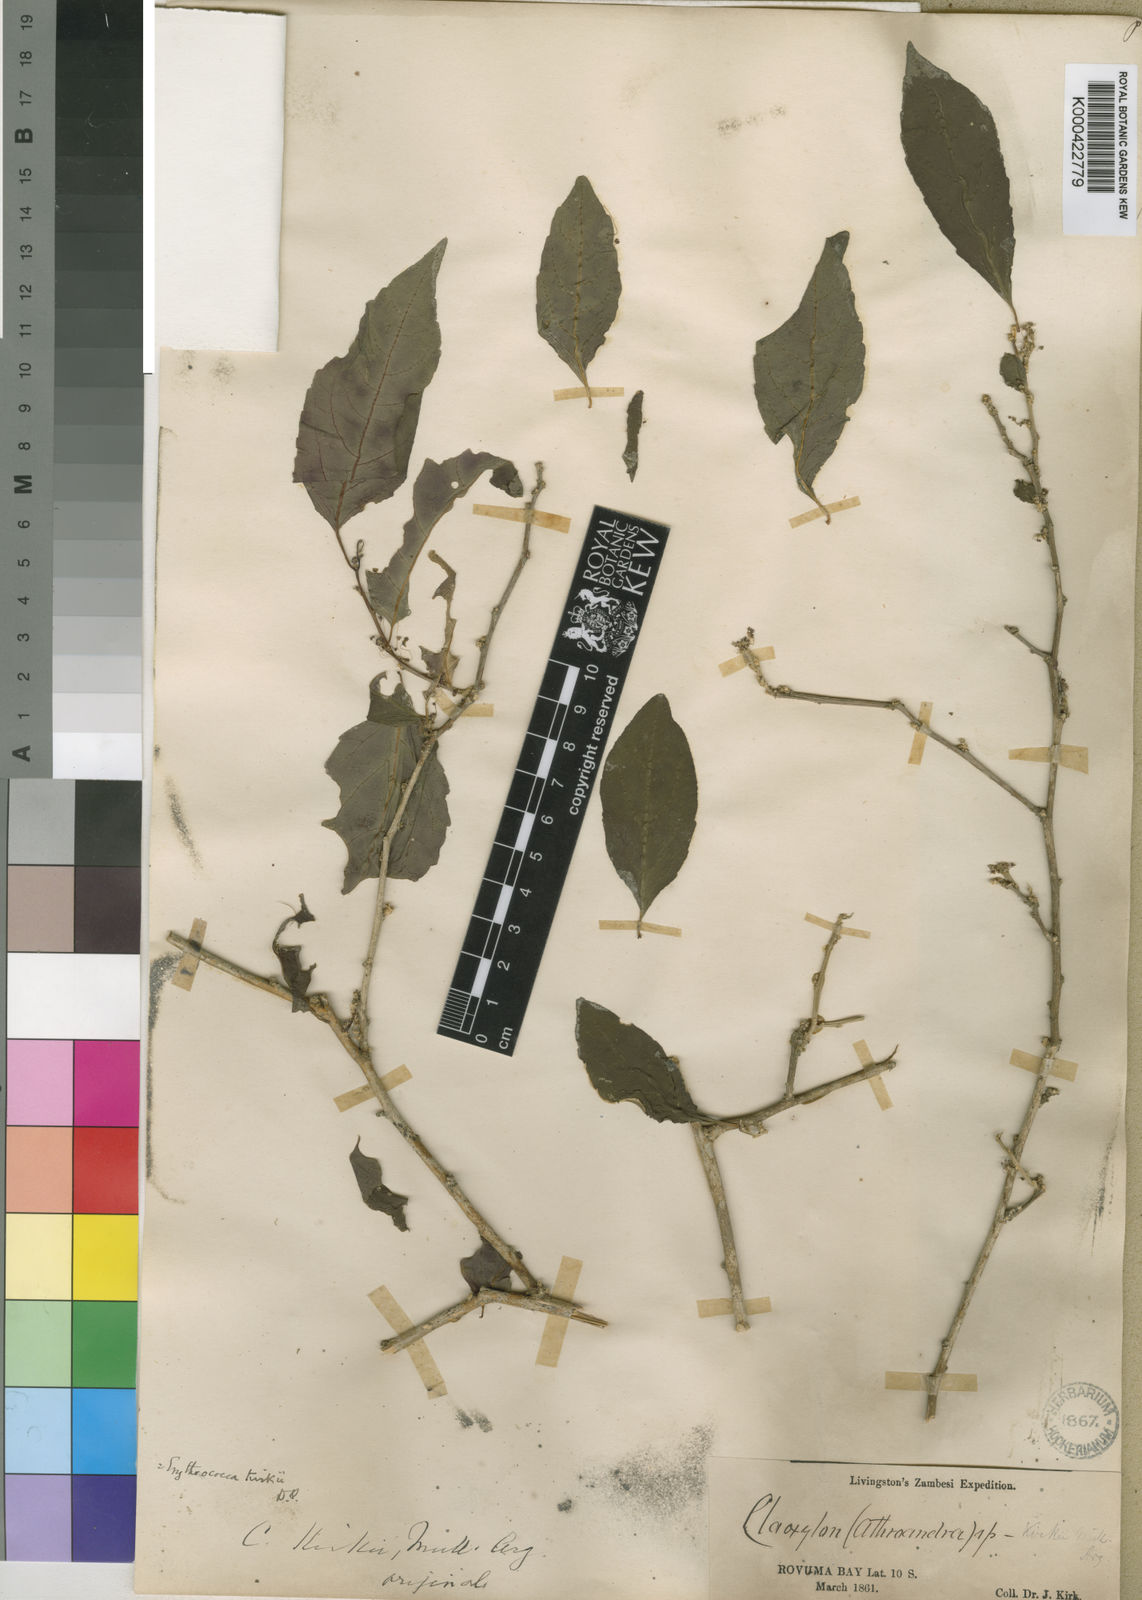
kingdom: Plantae
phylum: Tracheophyta
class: Magnoliopsida
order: Malpighiales
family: Euphorbiaceae
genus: Erythrococca
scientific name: Erythrococca
